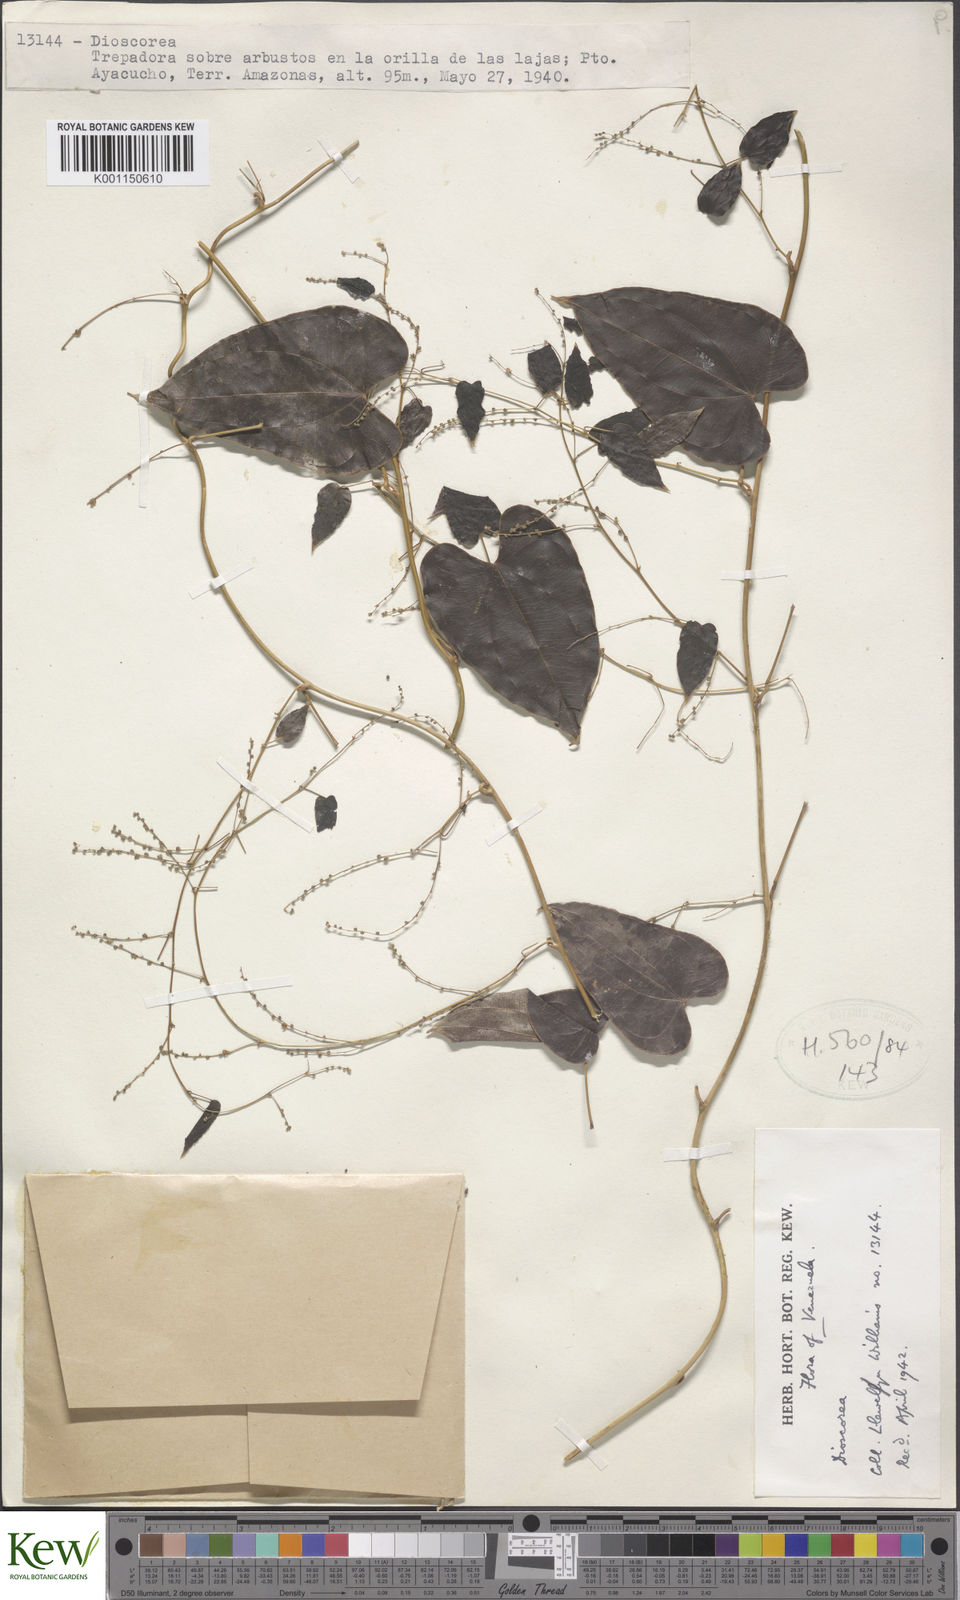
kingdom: Plantae
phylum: Tracheophyta
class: Liliopsida
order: Dioscoreales
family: Dioscoreaceae
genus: Dioscorea
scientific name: Dioscorea multiflora
